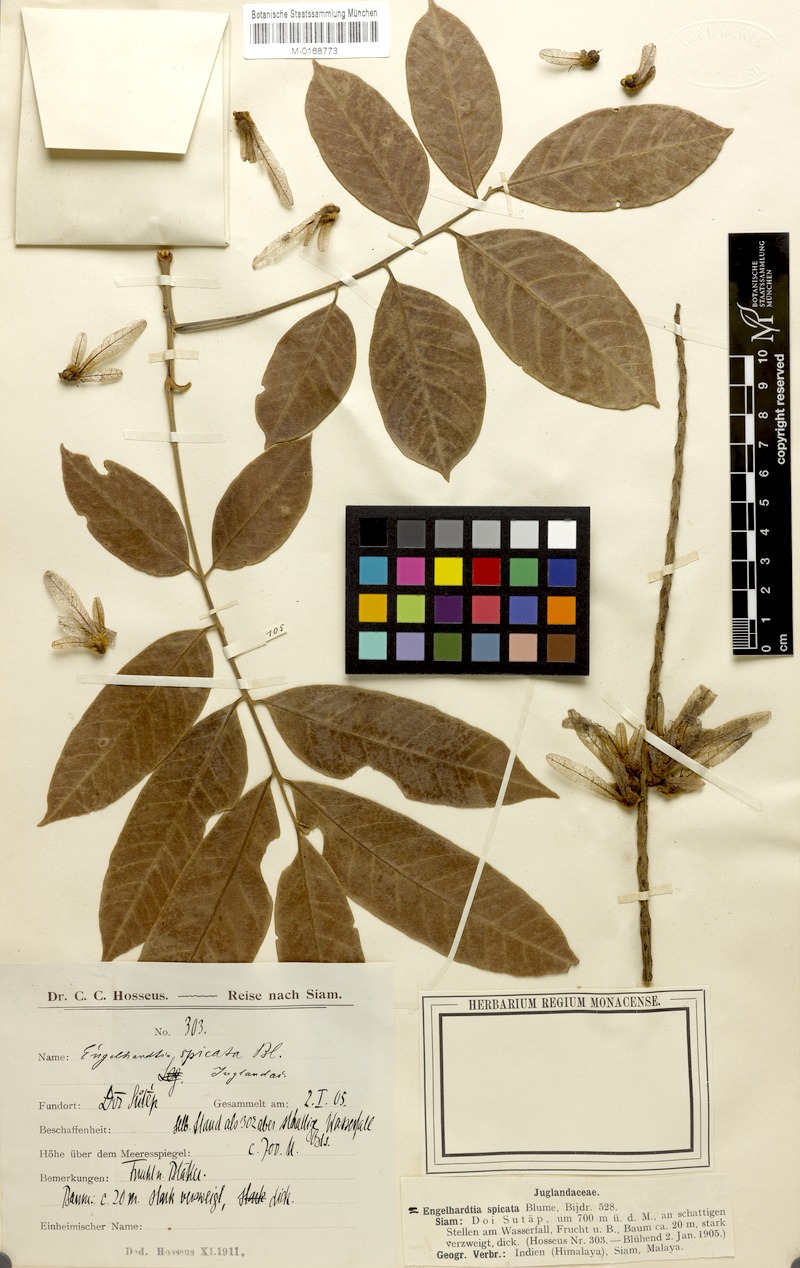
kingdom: Plantae
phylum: Tracheophyta
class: Magnoliopsida
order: Fagales
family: Juglandaceae
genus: Engelhardia
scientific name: Engelhardia spicata
